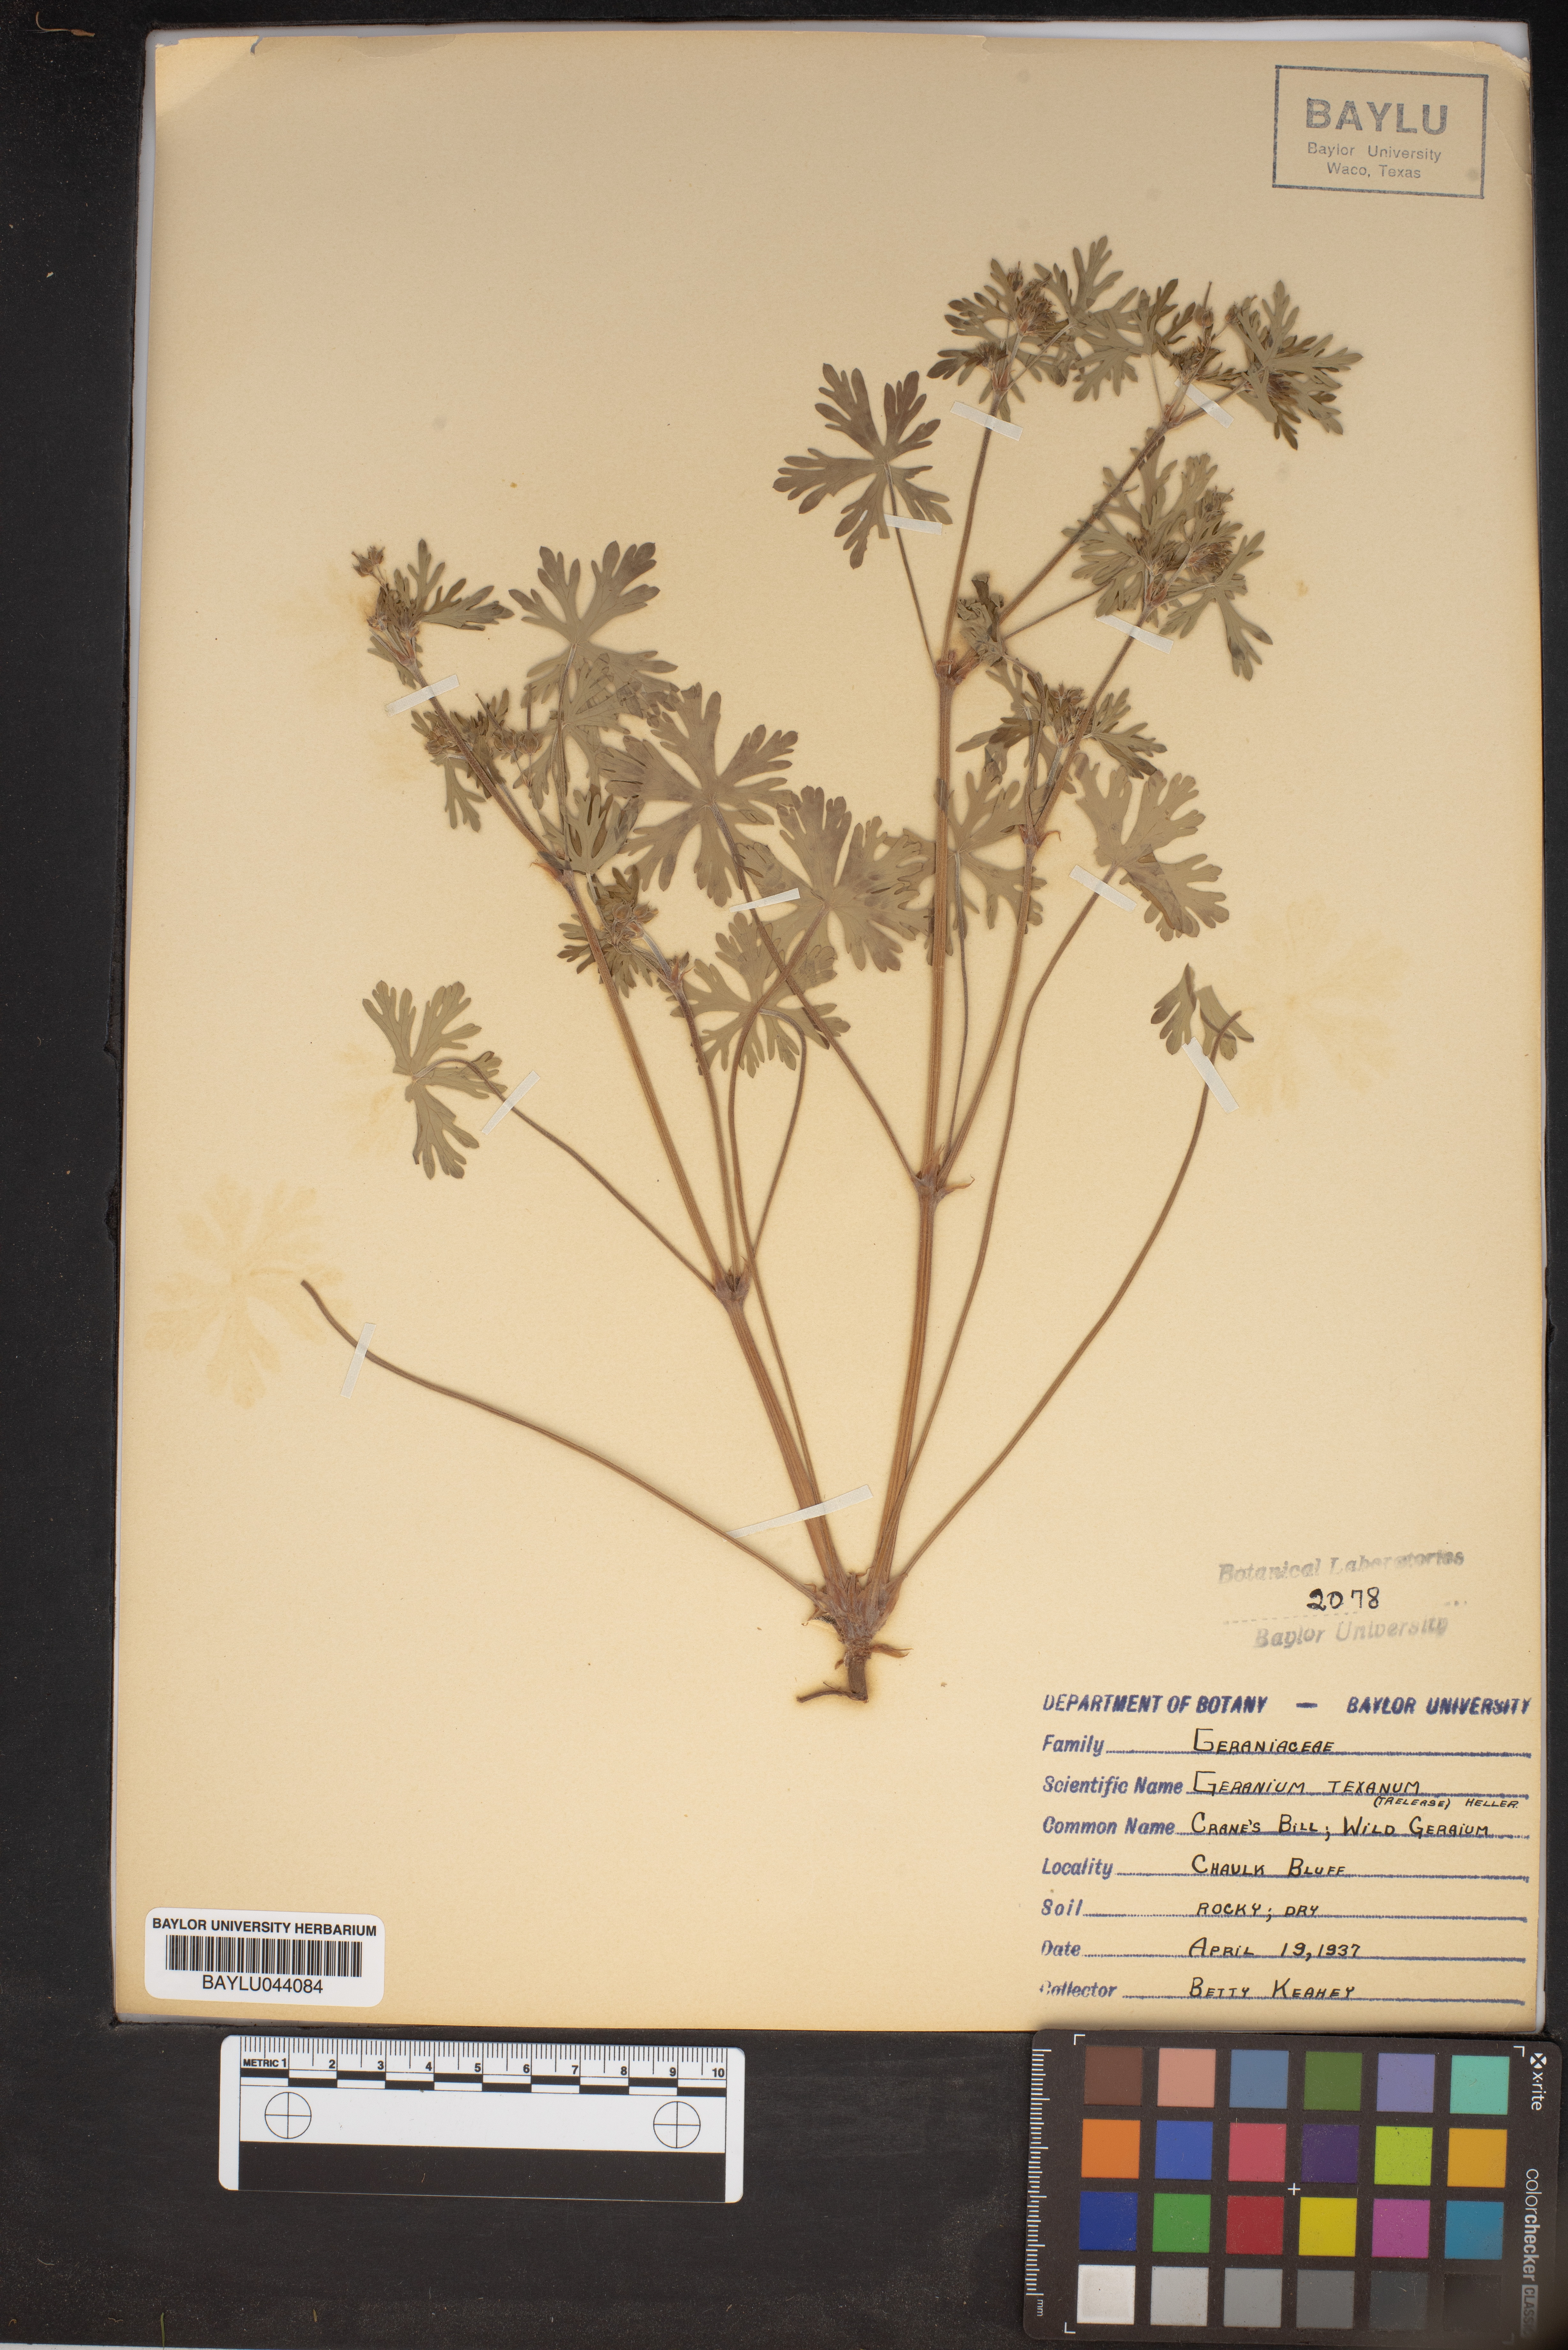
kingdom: Plantae
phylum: Tracheophyta
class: Magnoliopsida
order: Geraniales
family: Geraniaceae
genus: Geranium
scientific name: Geranium texanum
